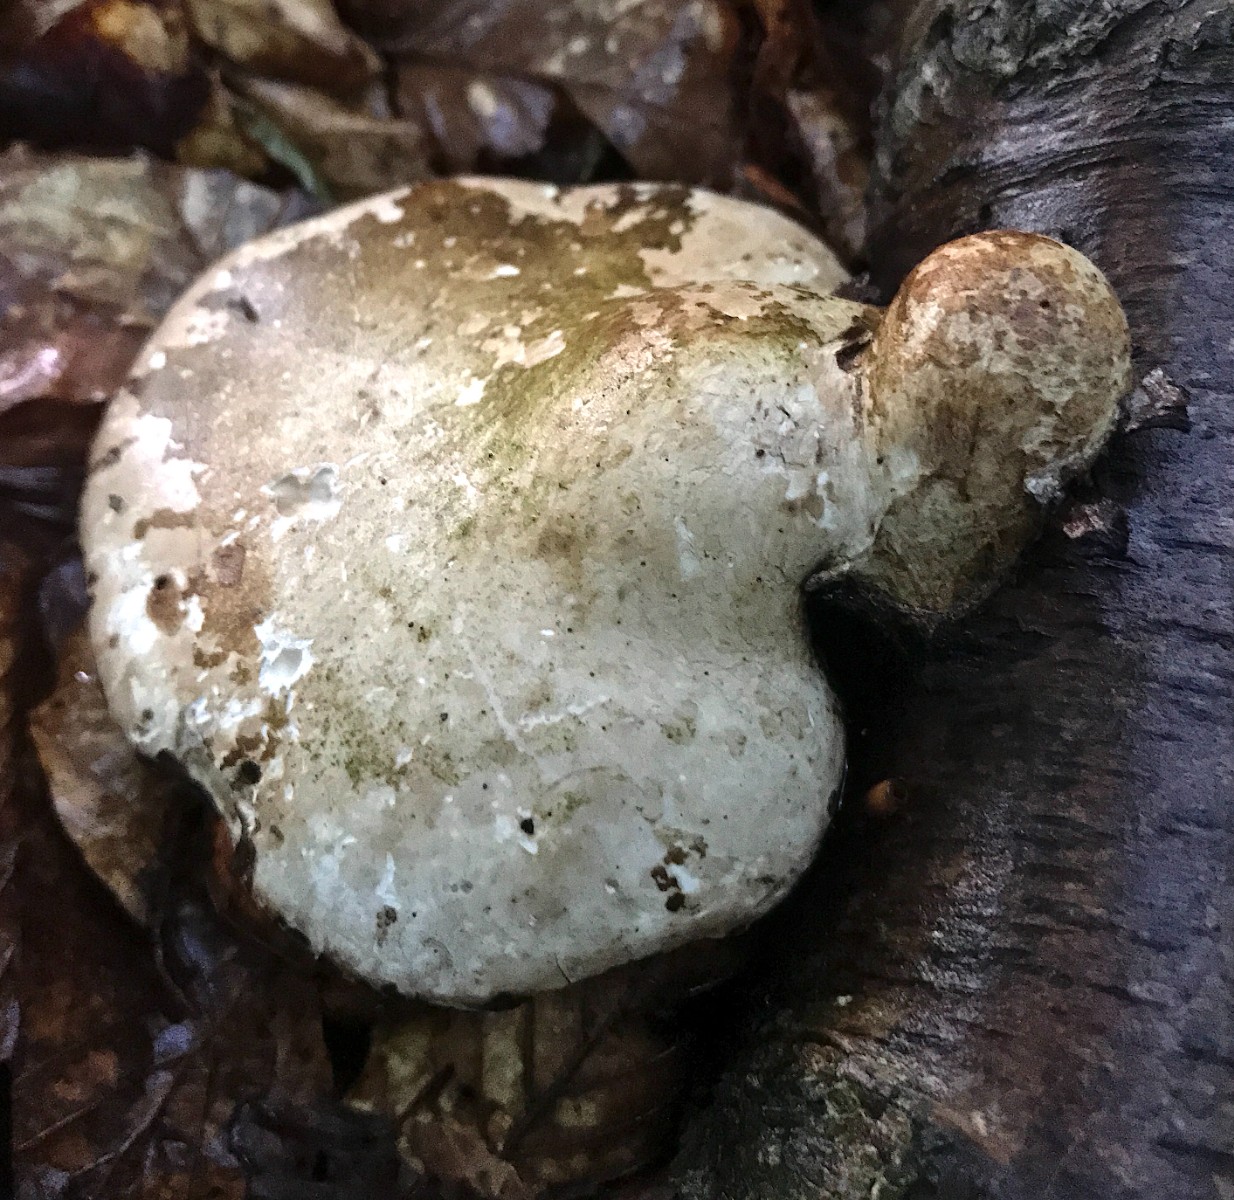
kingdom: Fungi
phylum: Basidiomycota
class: Agaricomycetes
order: Polyporales
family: Fomitopsidaceae
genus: Fomitopsis
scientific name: Fomitopsis betulina
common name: birkeporesvamp
